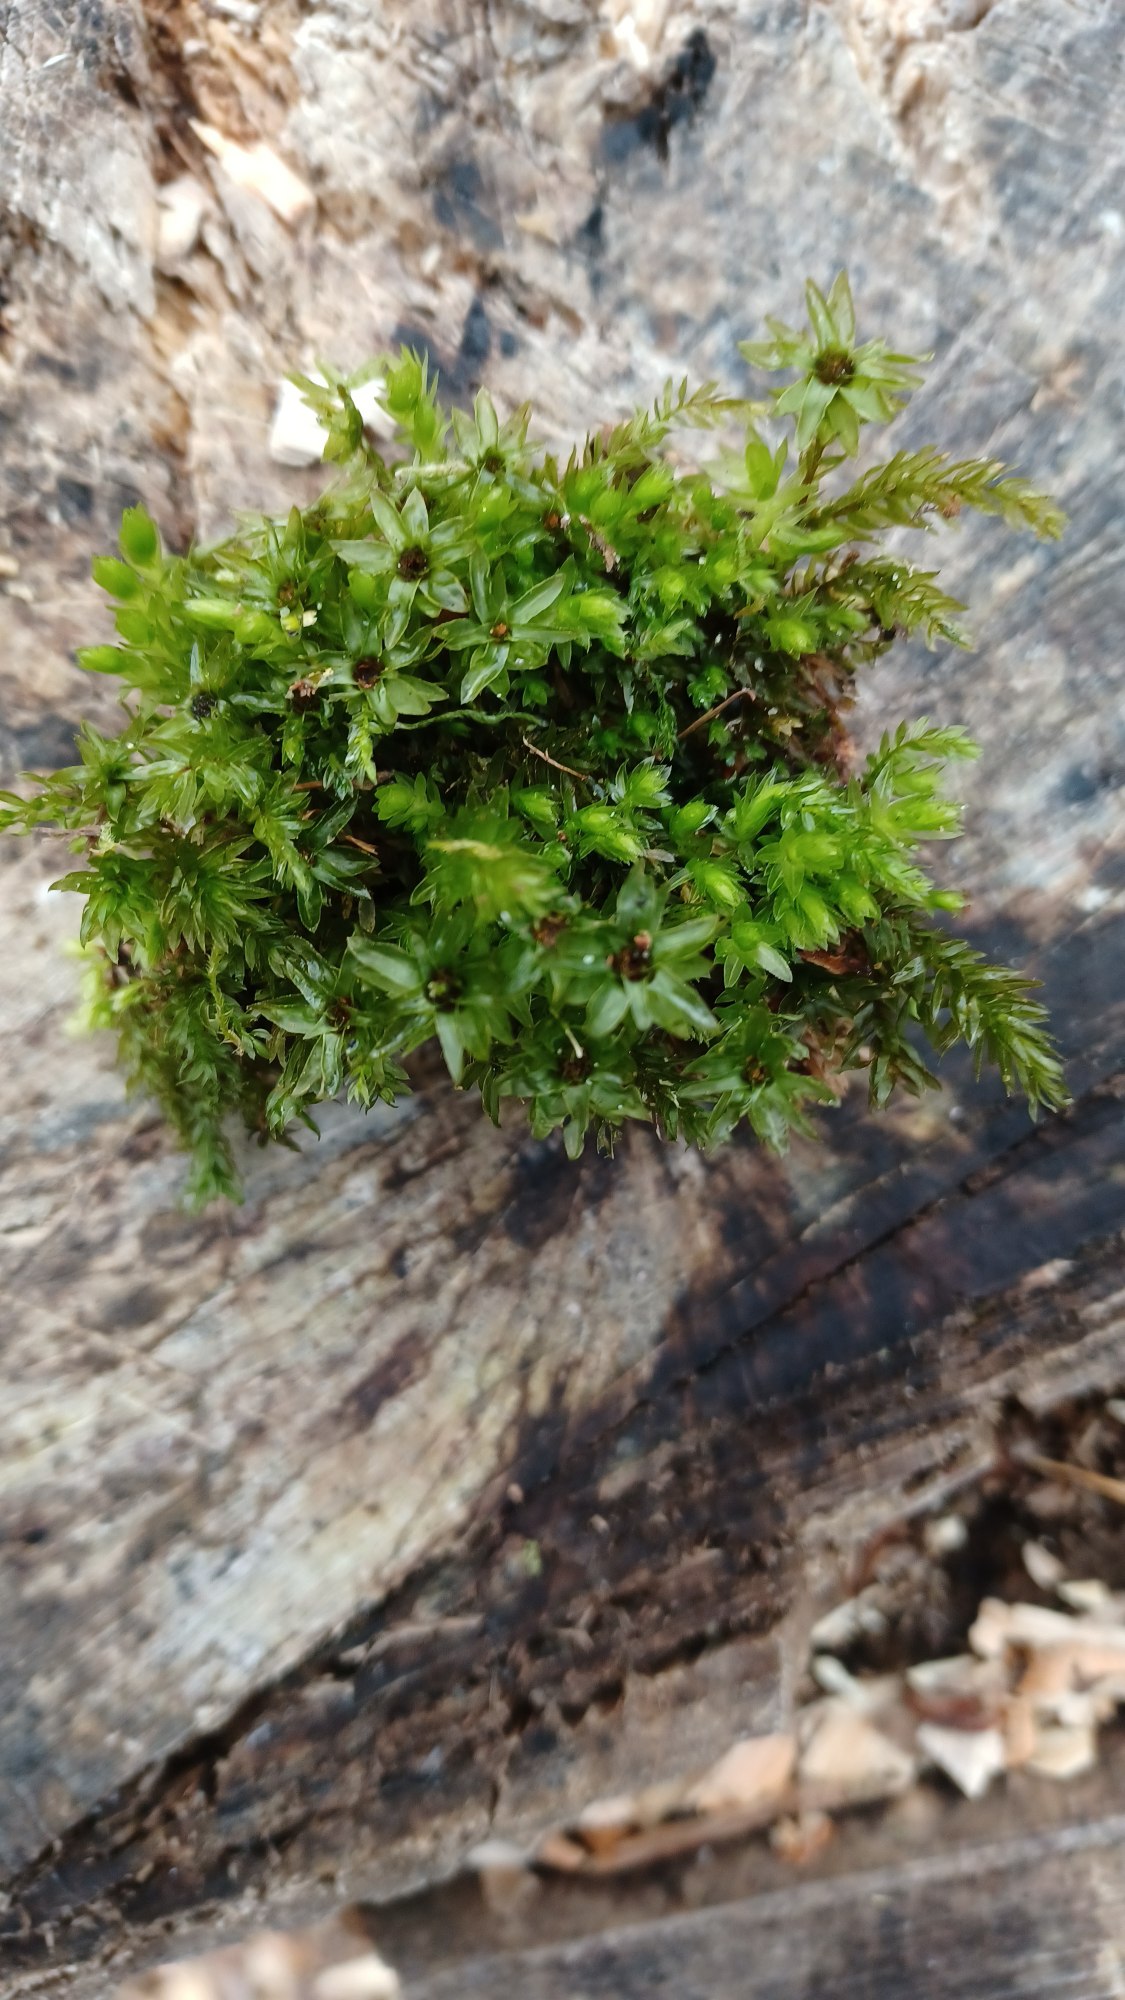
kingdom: Plantae
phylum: Bryophyta
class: Bryopsida
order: Bryales
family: Mniaceae
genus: Mnium
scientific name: Mnium hornum
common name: Brunfiltet stjernemos
